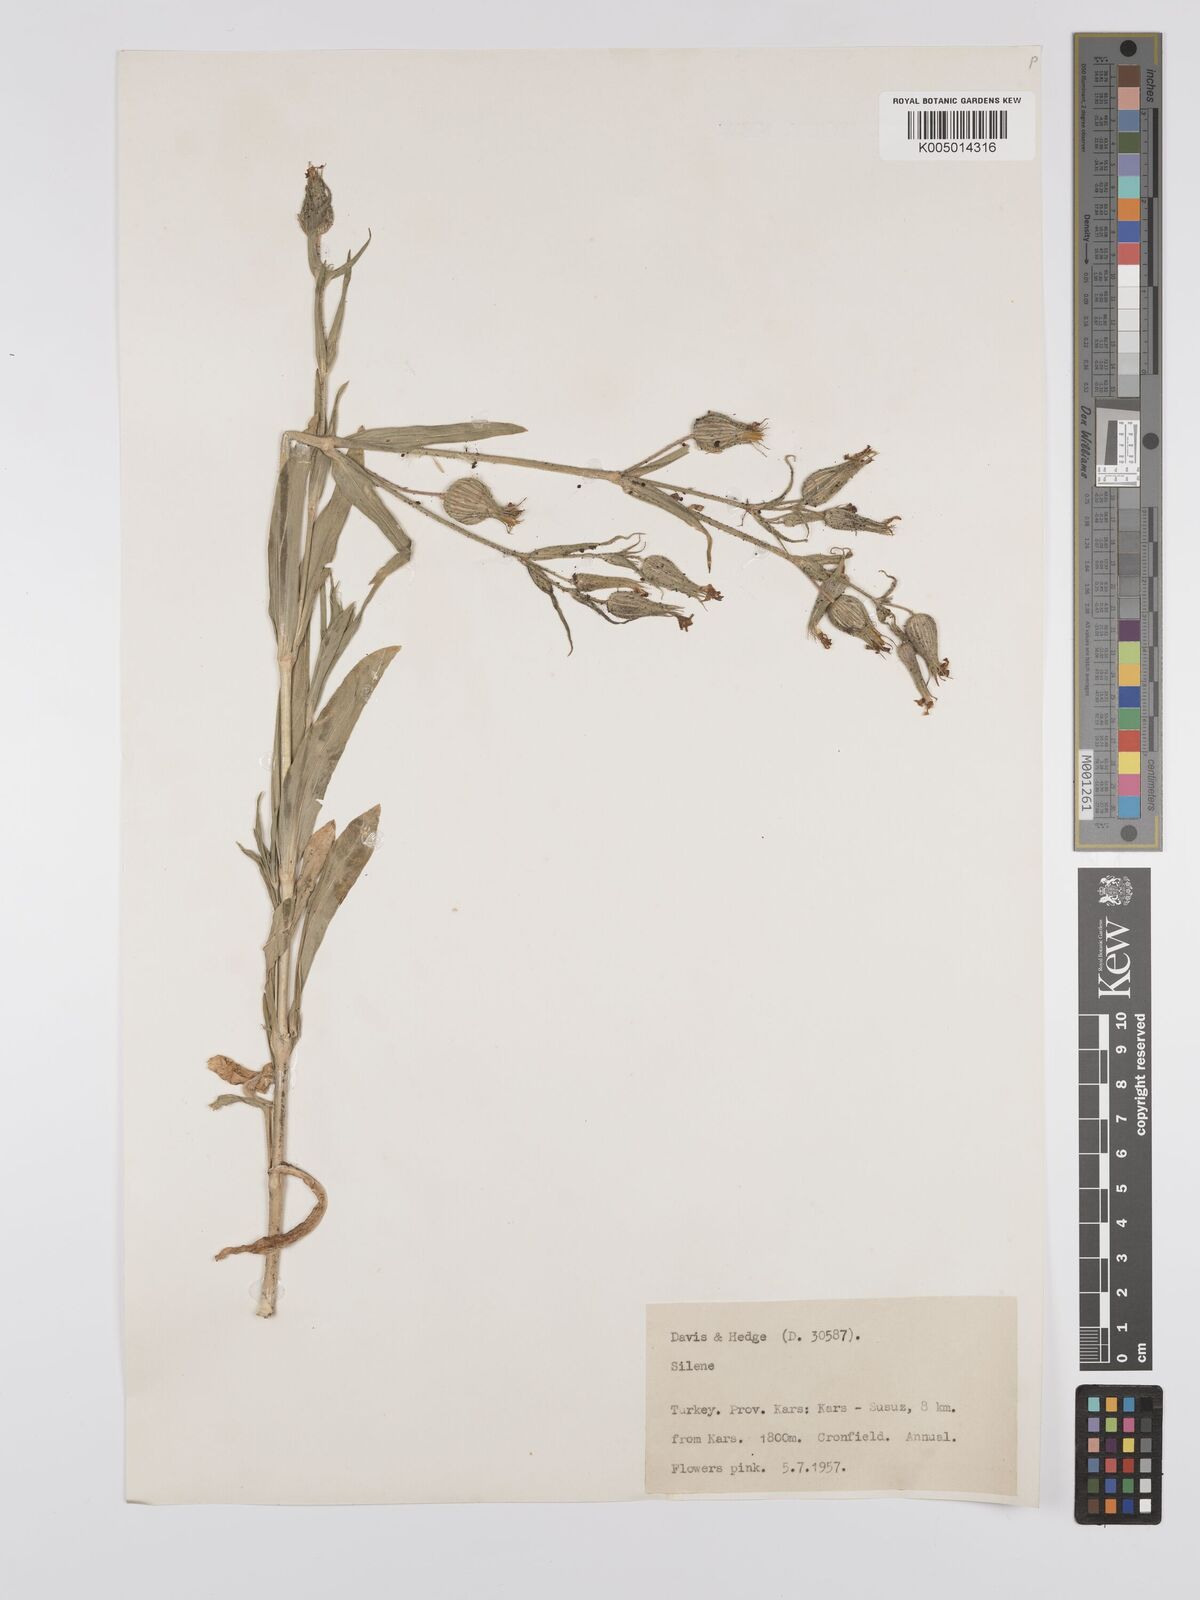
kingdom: Plantae
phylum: Tracheophyta
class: Magnoliopsida
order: Caryophyllales
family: Caryophyllaceae
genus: Silene
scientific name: Silene
